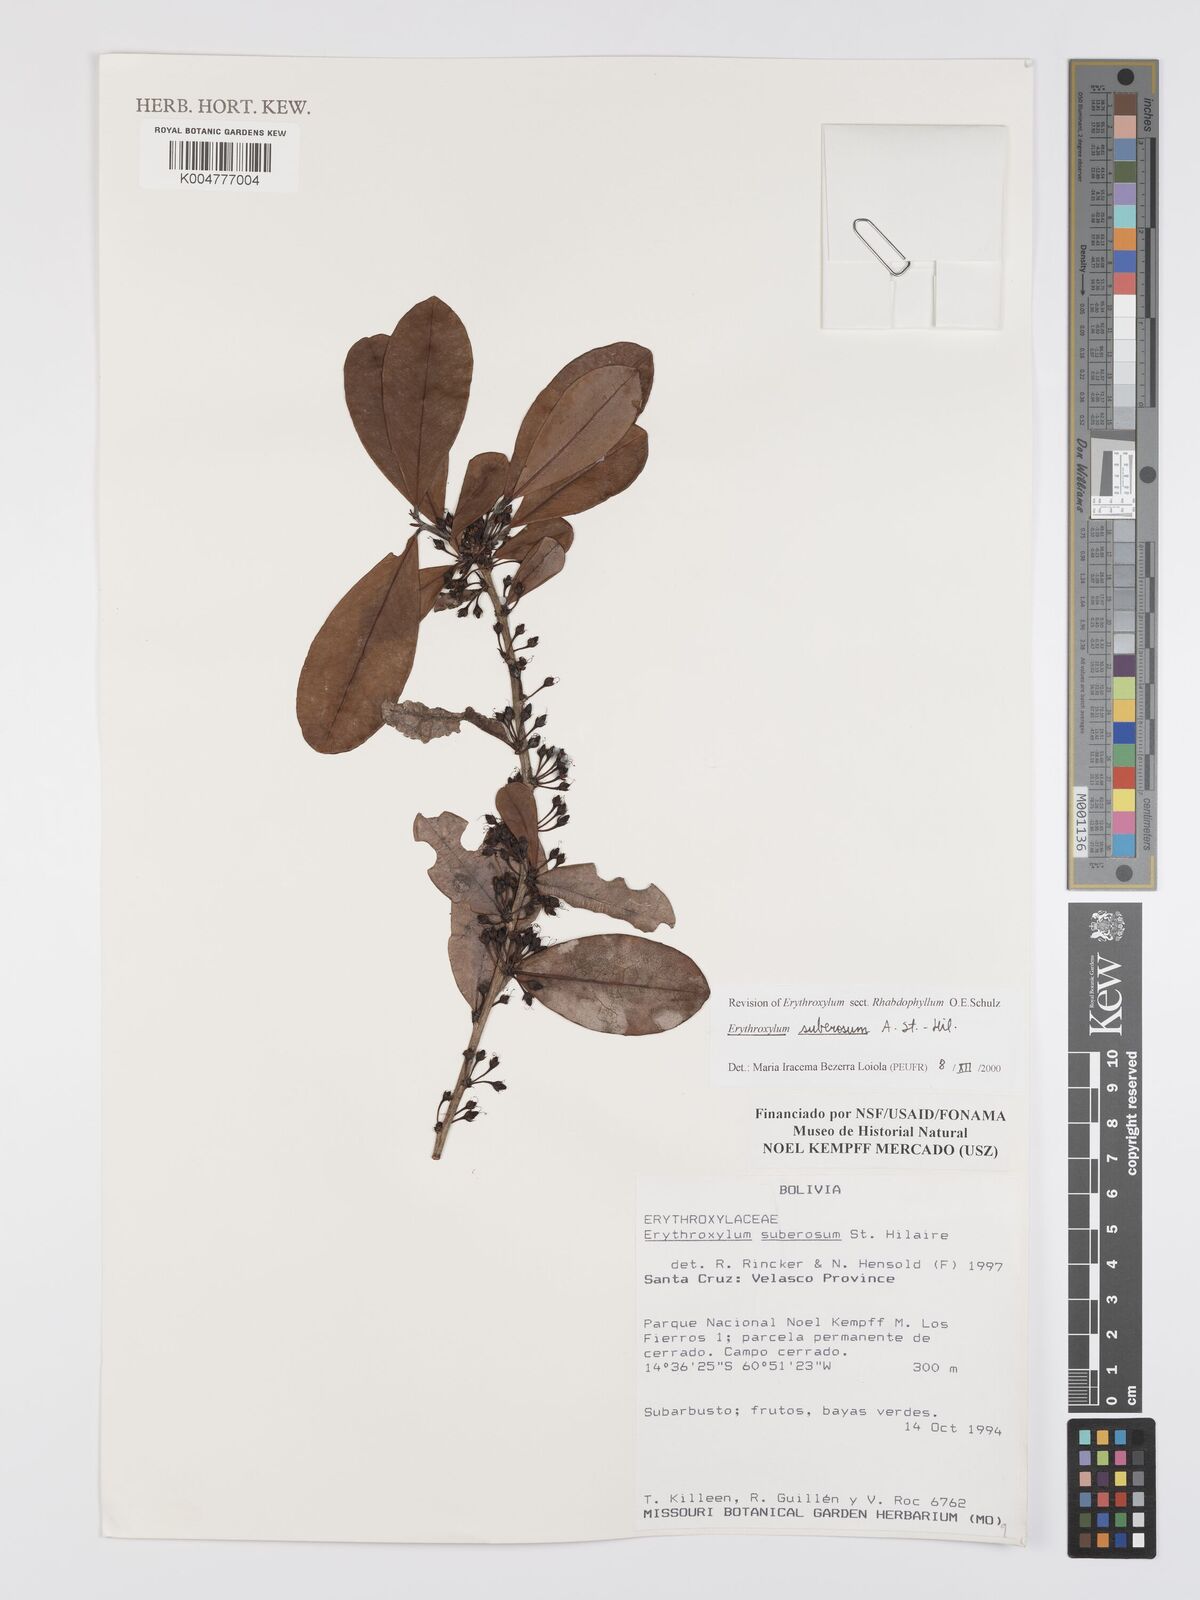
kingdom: Plantae
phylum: Tracheophyta
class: Magnoliopsida
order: Malpighiales
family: Erythroxylaceae
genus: Erythroxylum
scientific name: Erythroxylum suberosum
